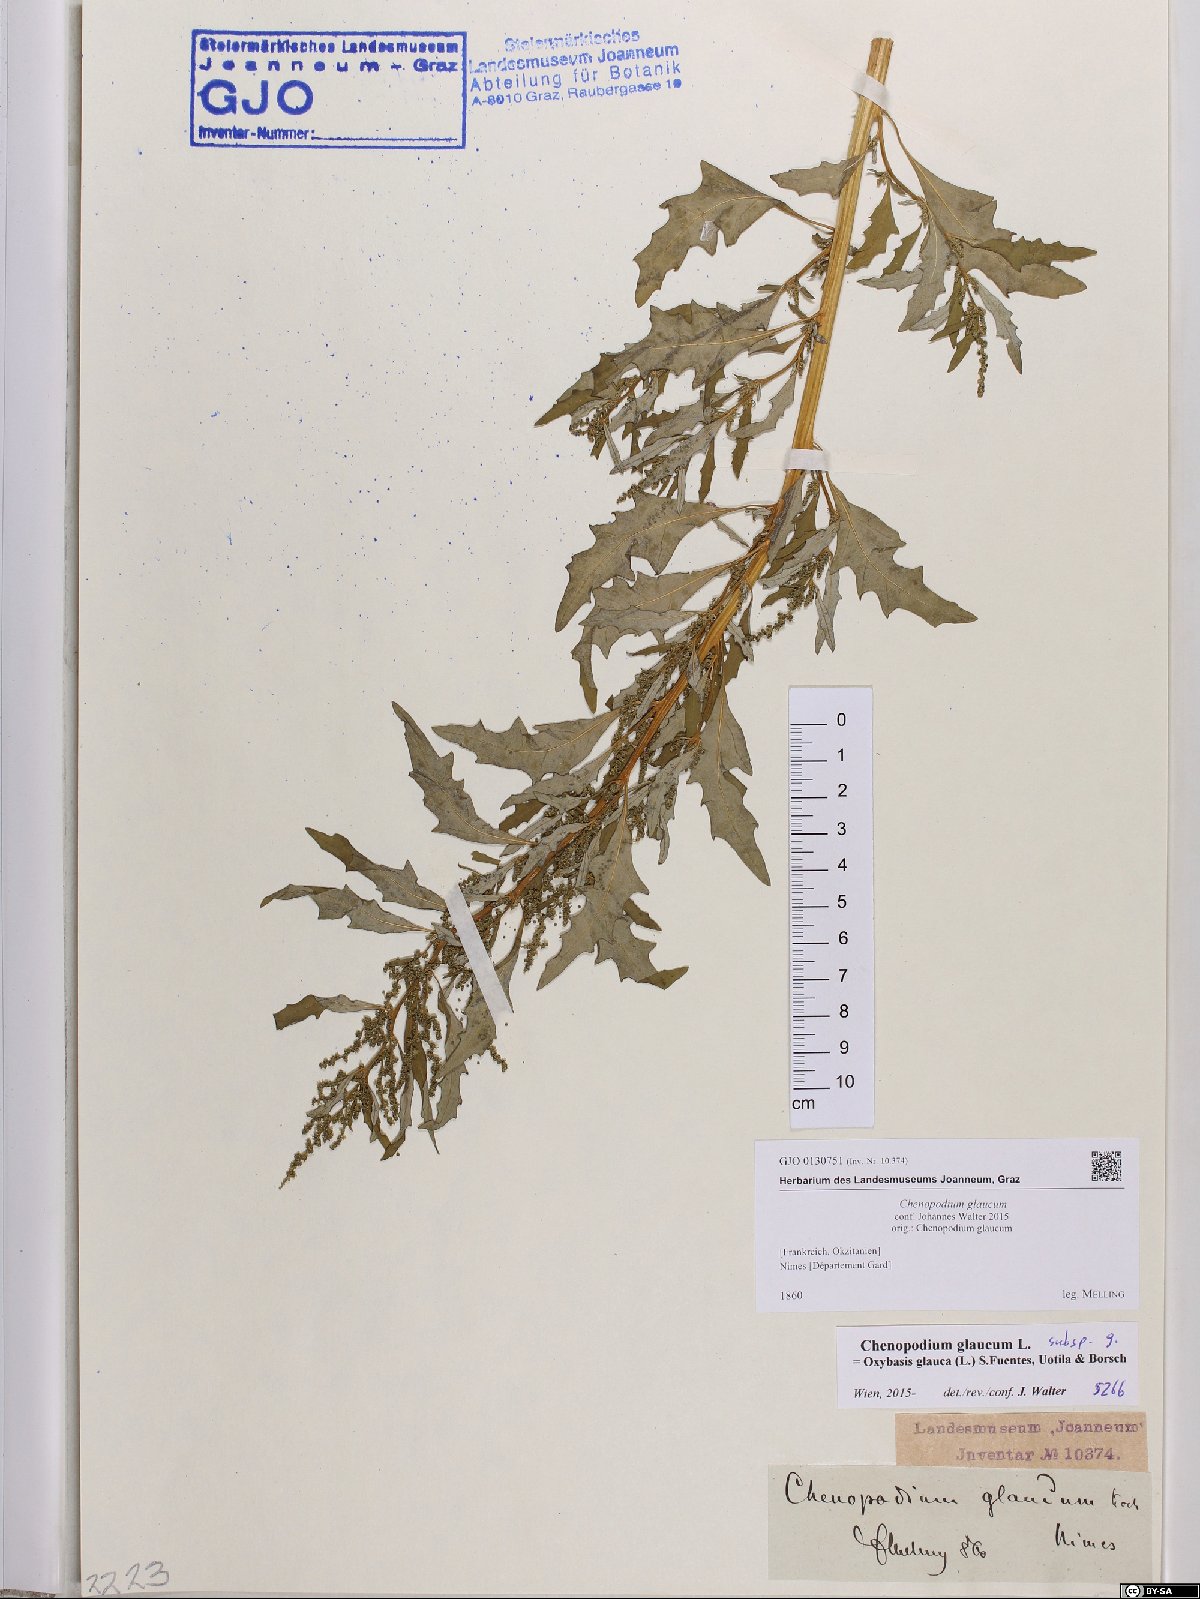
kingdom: Plantae
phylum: Tracheophyta
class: Magnoliopsida
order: Caryophyllales
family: Amaranthaceae
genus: Oxybasis
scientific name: Oxybasis glauca
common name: Glaucous goosefoot
